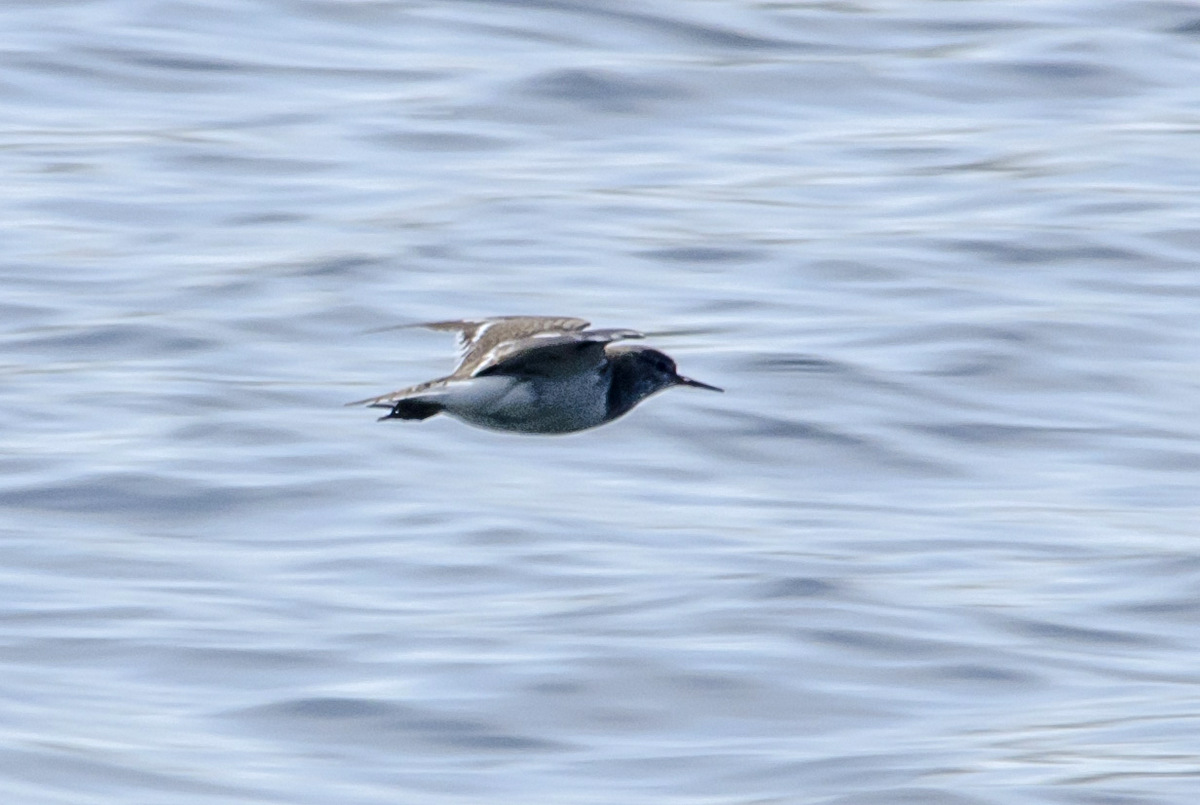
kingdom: Animalia
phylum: Chordata
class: Aves
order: Charadriiformes
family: Scolopacidae
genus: Actitis
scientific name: Actitis hypoleucos
